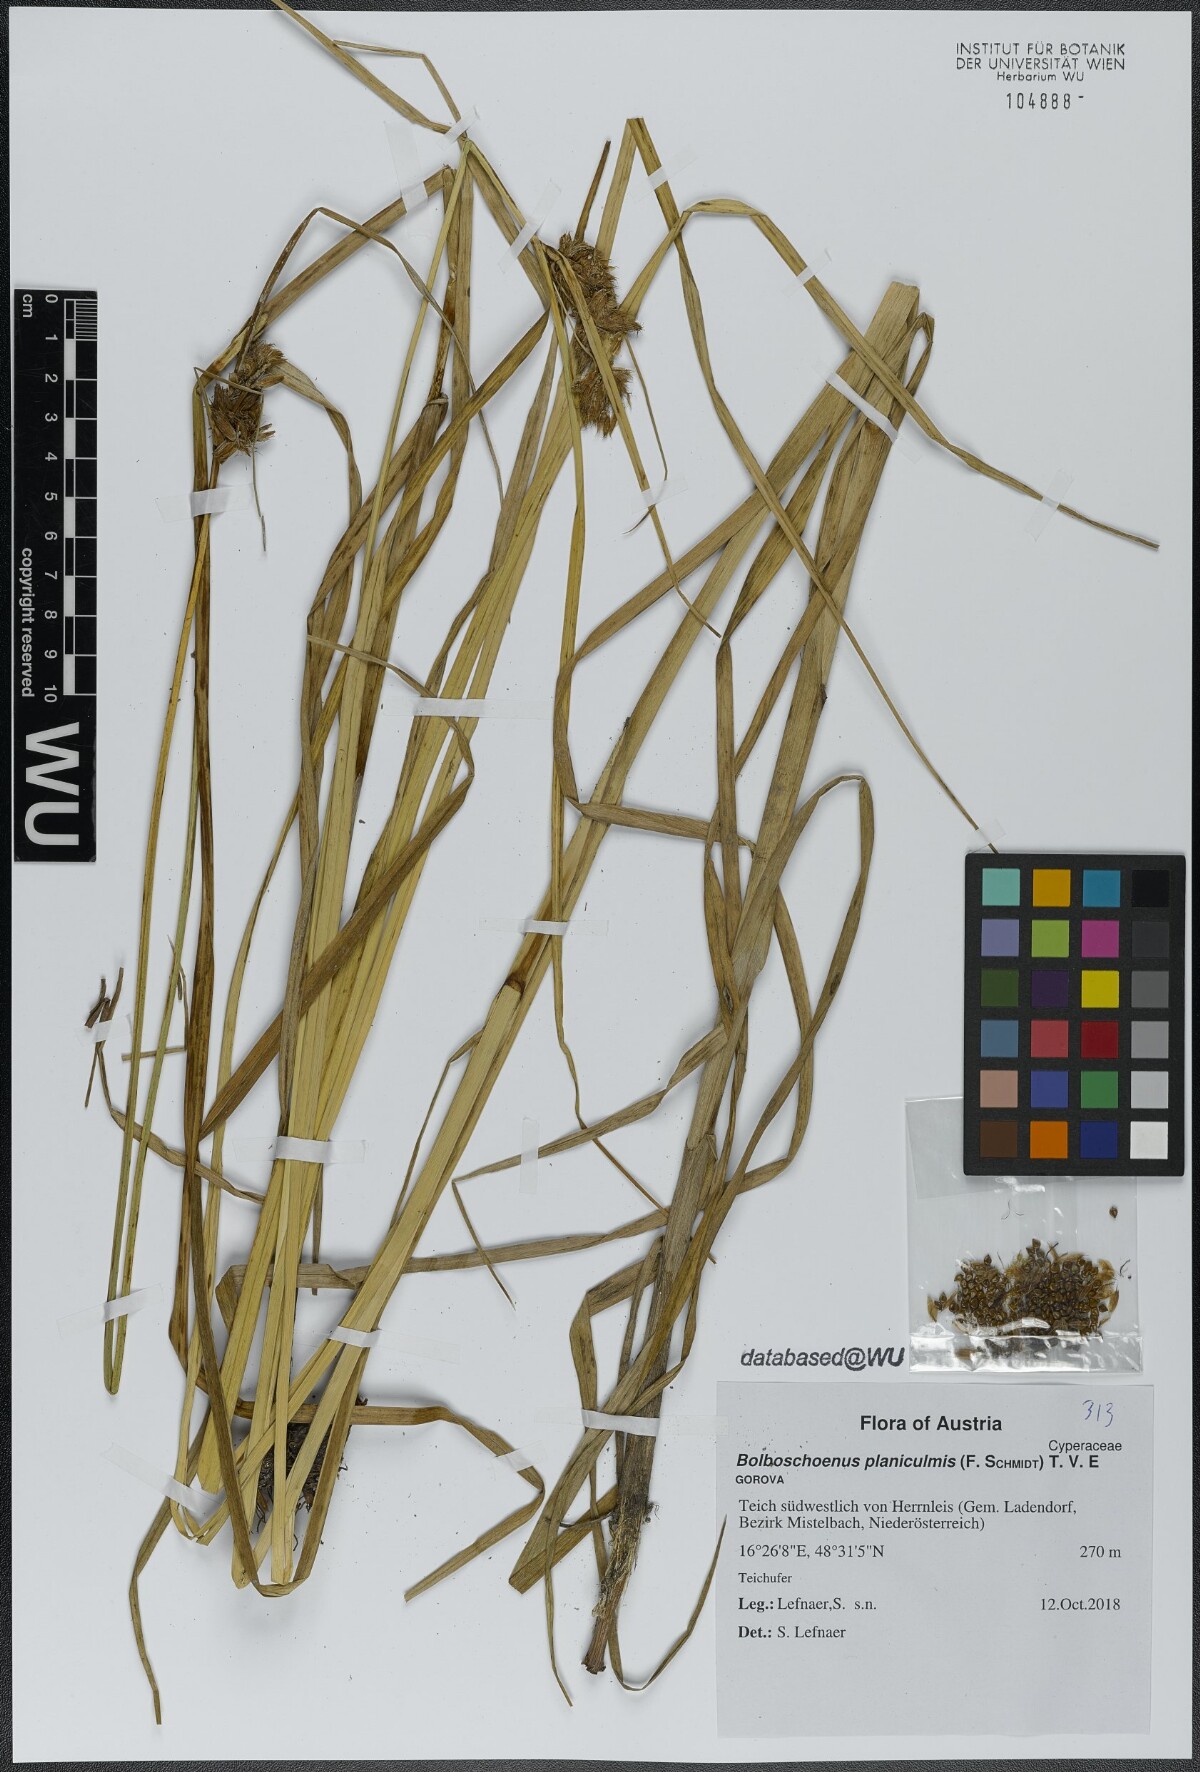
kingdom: Plantae
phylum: Tracheophyta
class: Liliopsida
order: Poales
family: Cyperaceae
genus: Bolboschoenus
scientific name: Bolboschoenus planiculmis
